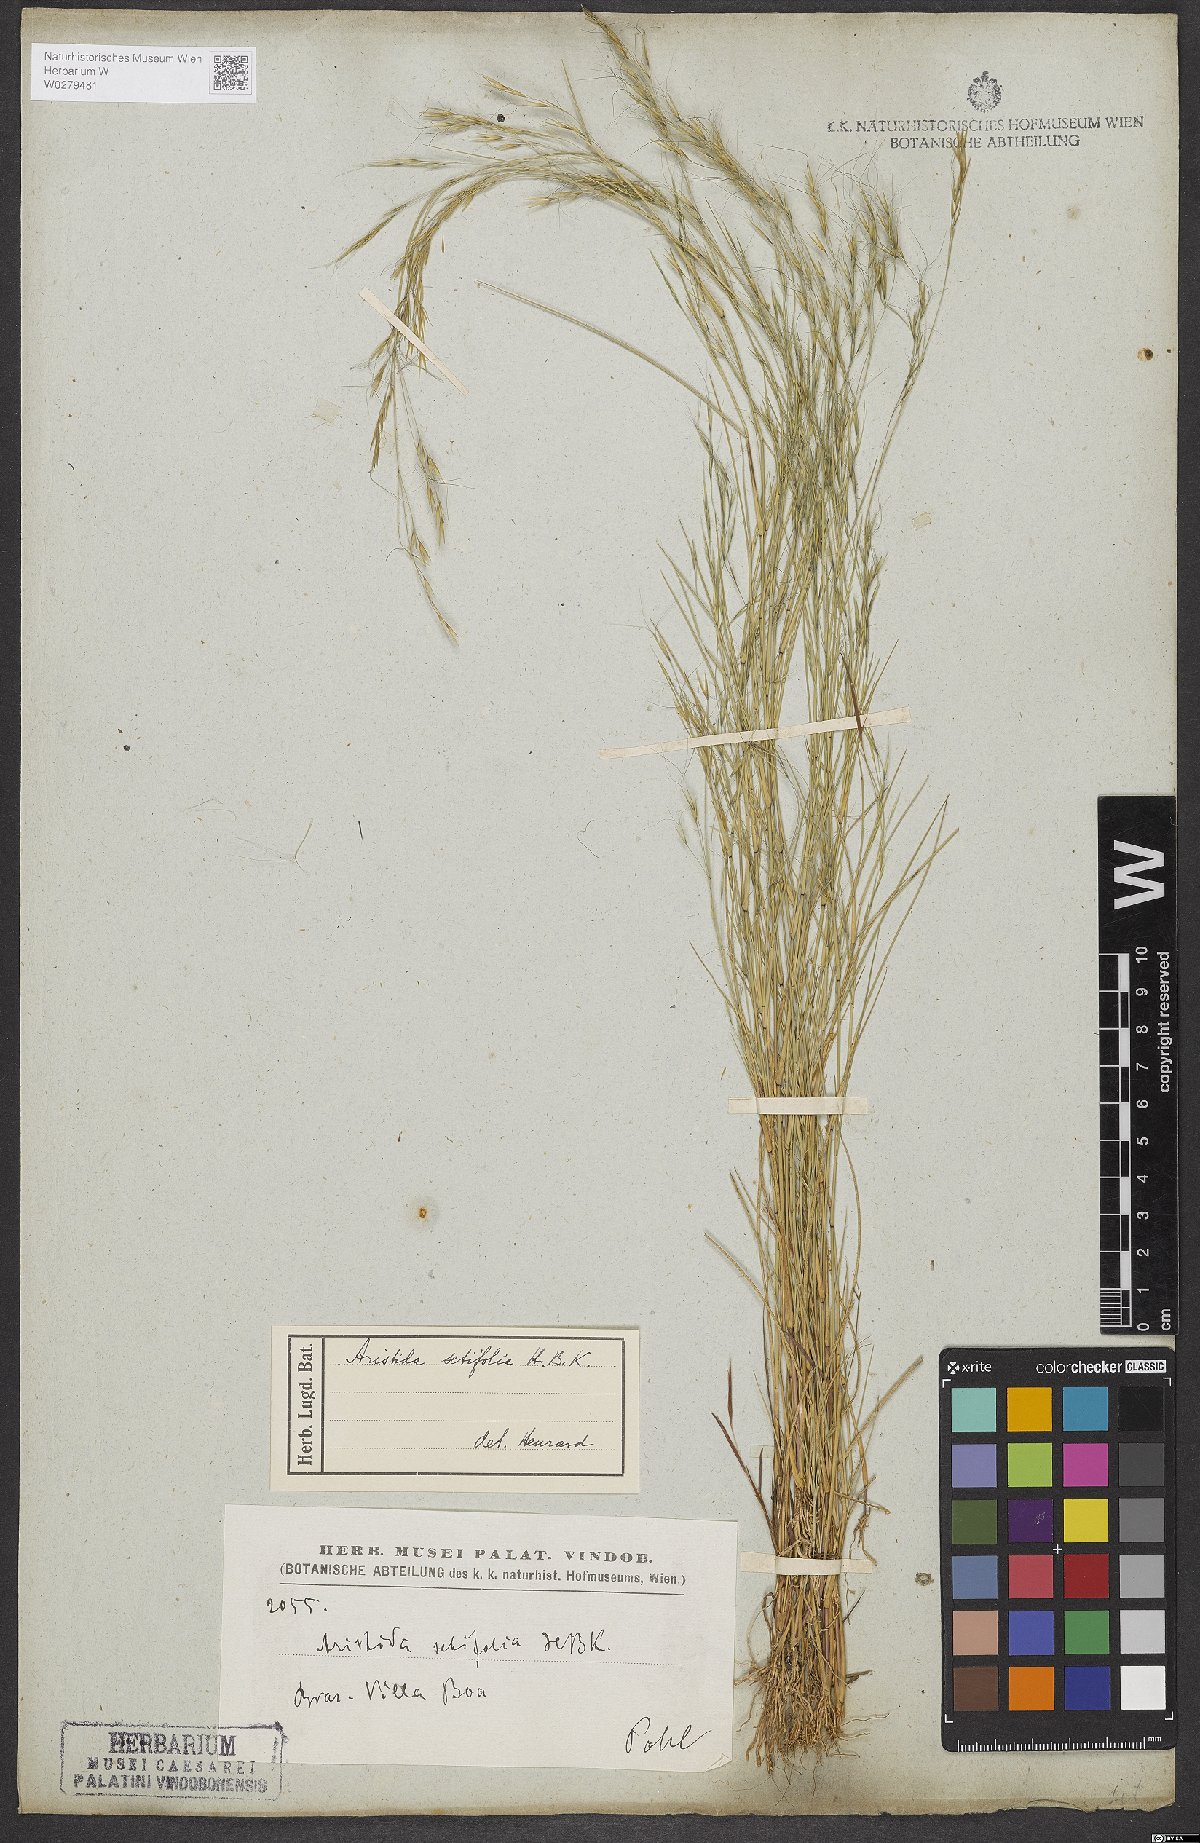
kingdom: Plantae
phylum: Tracheophyta
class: Liliopsida
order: Poales
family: Poaceae
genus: Aristida
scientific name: Aristida setifolia
